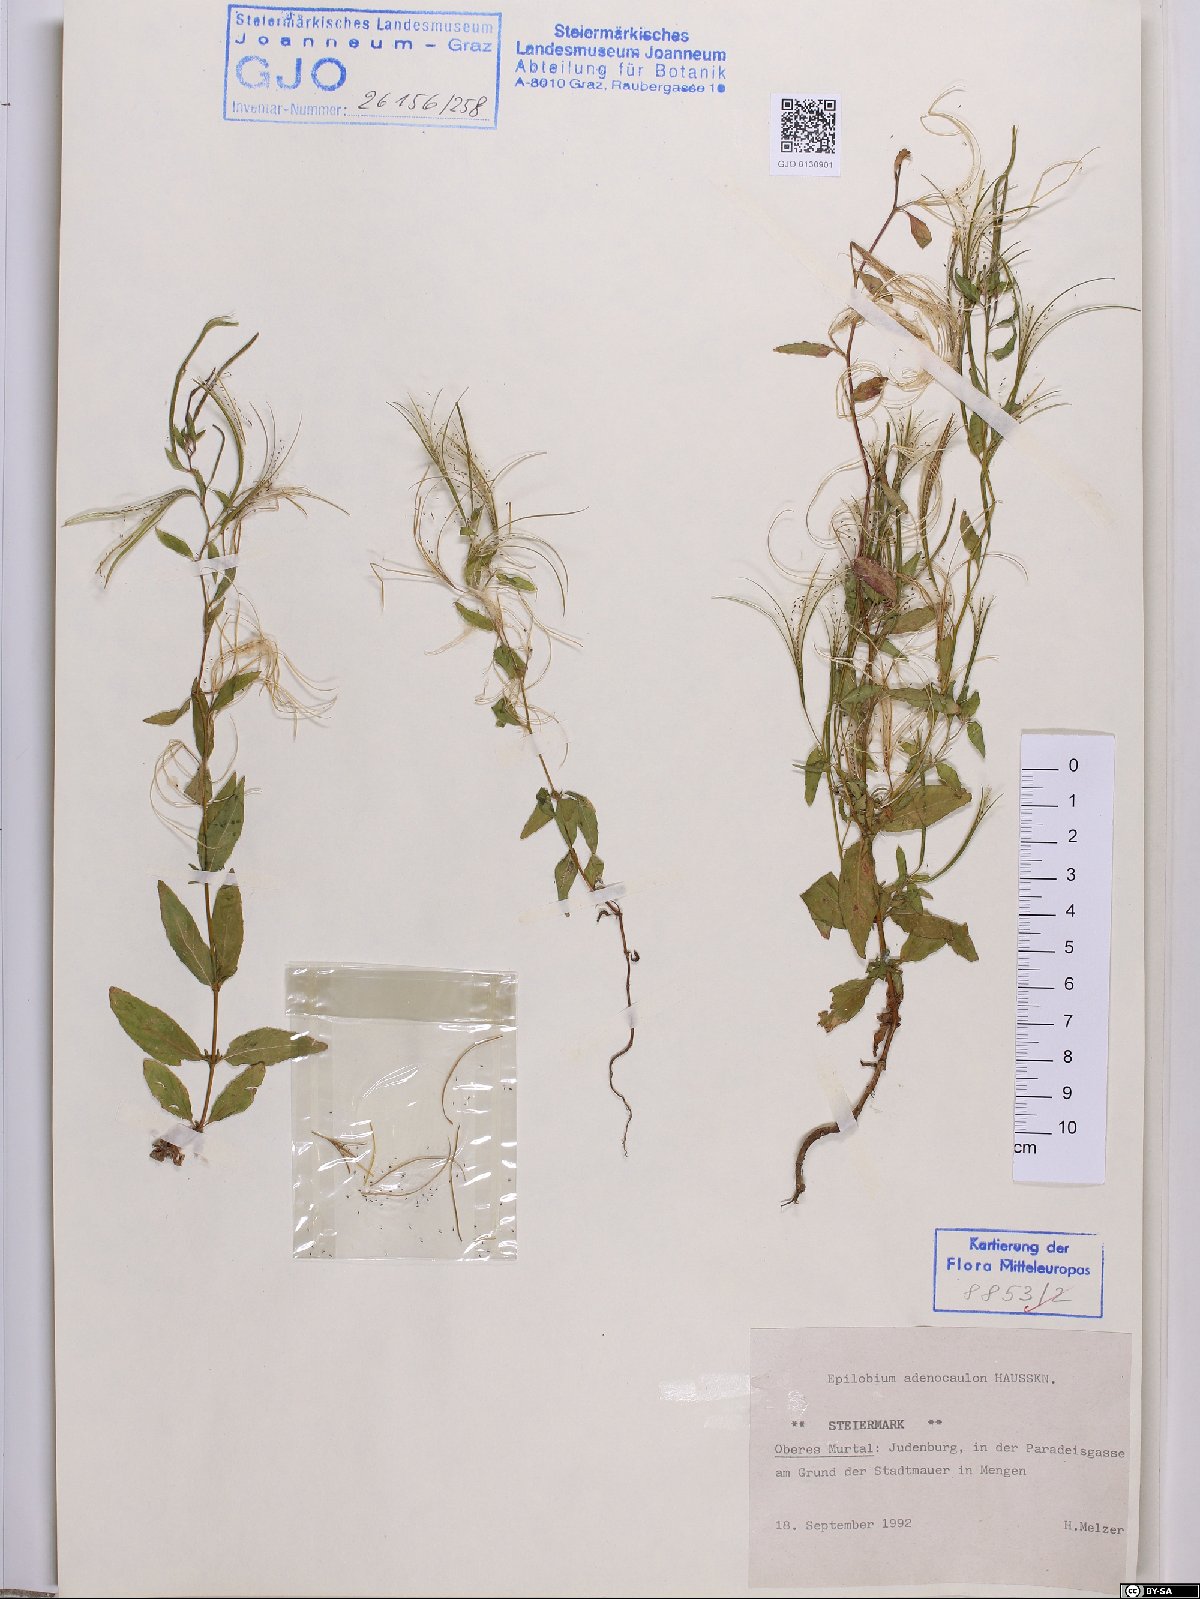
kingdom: Plantae
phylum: Tracheophyta
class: Magnoliopsida
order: Myrtales
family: Onagraceae
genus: Epilobium
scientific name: Epilobium ciliatum
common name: American willowherb
